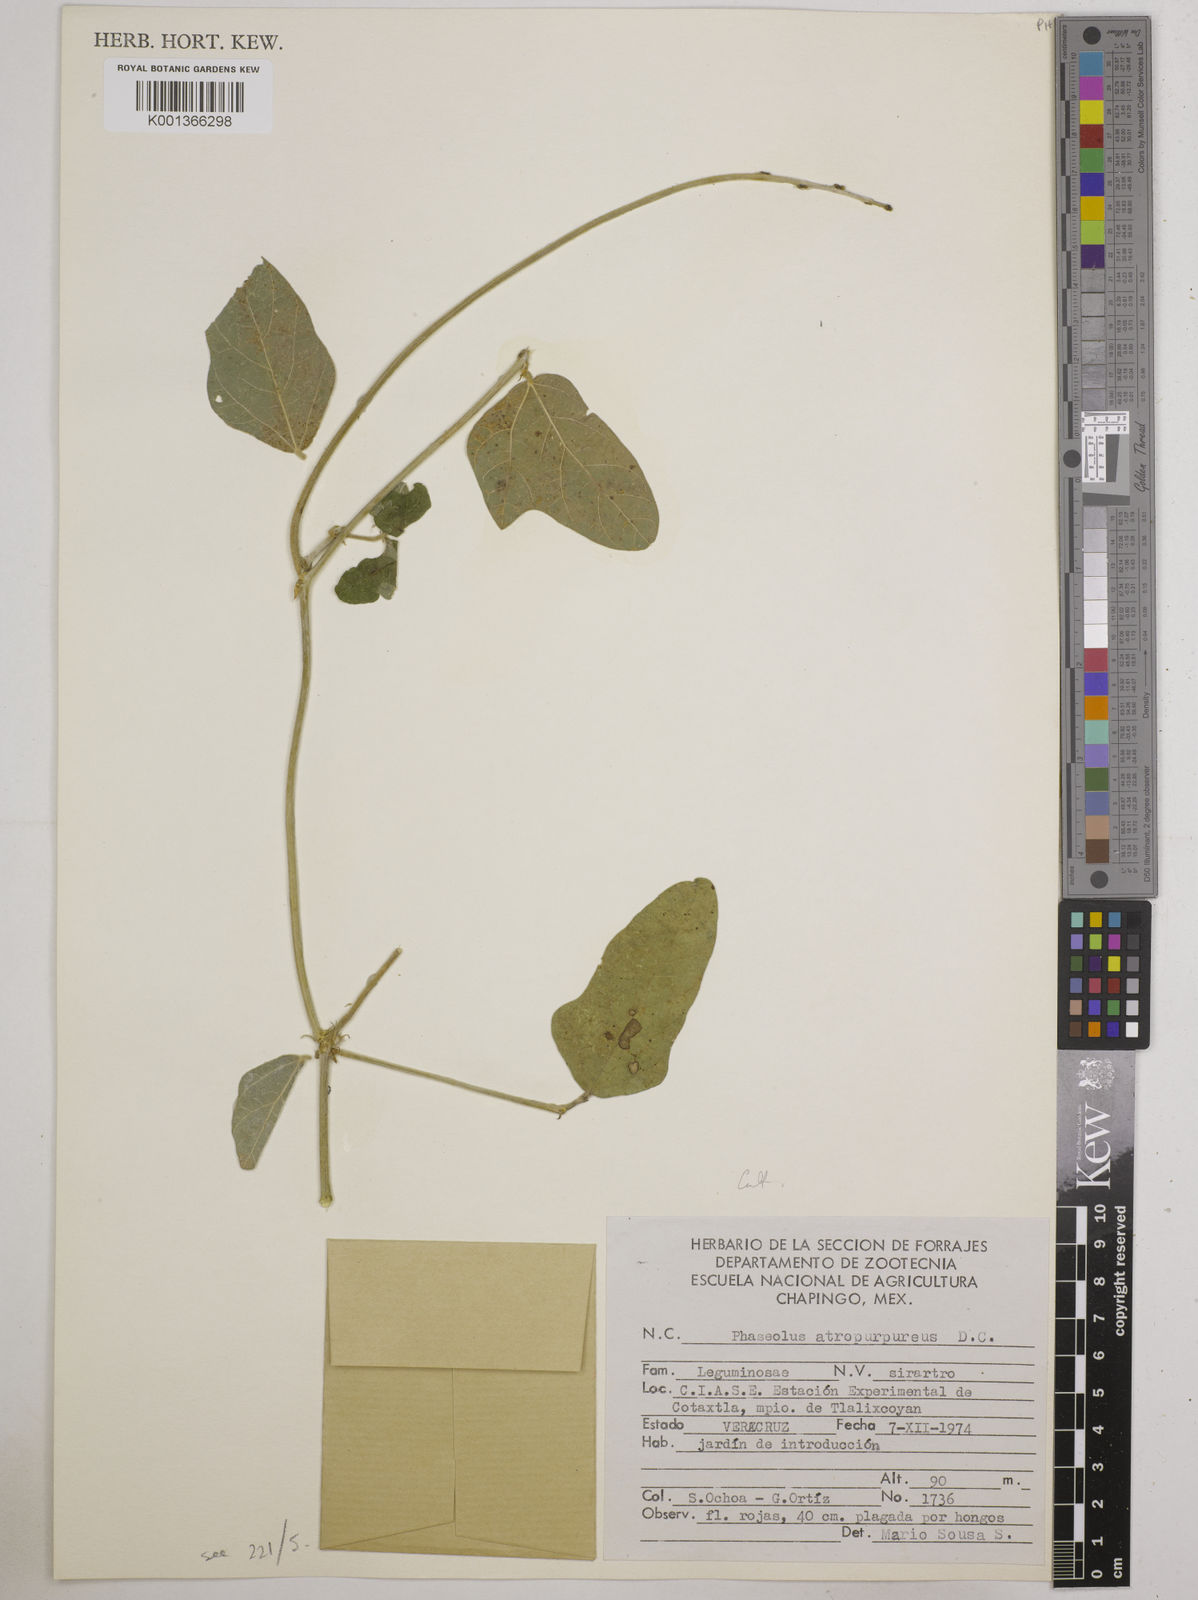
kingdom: Plantae
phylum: Tracheophyta
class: Magnoliopsida
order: Fabales
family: Fabaceae
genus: Macroptilium
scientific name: Macroptilium atropurpureum
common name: Purple bushbean
